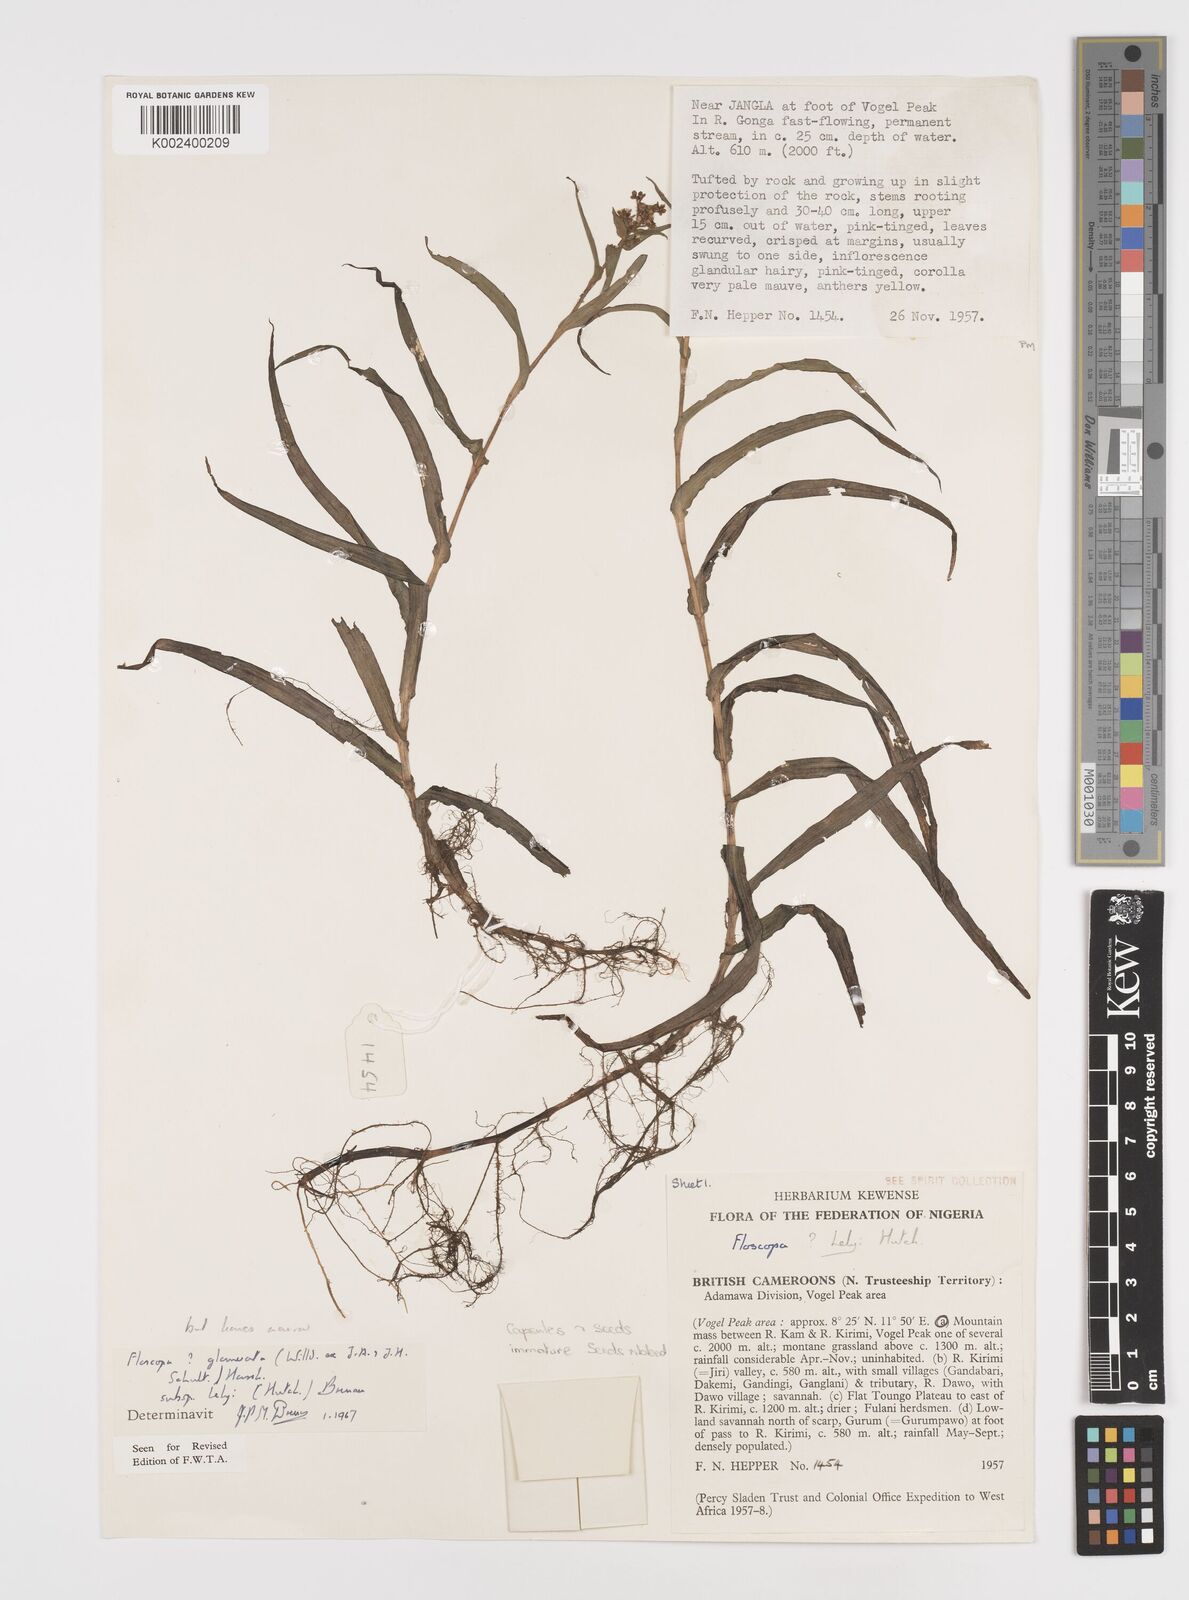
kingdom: Plantae
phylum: Tracheophyta
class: Liliopsida
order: Commelinales
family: Commelinaceae
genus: Floscopa
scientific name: Floscopa glomerata
